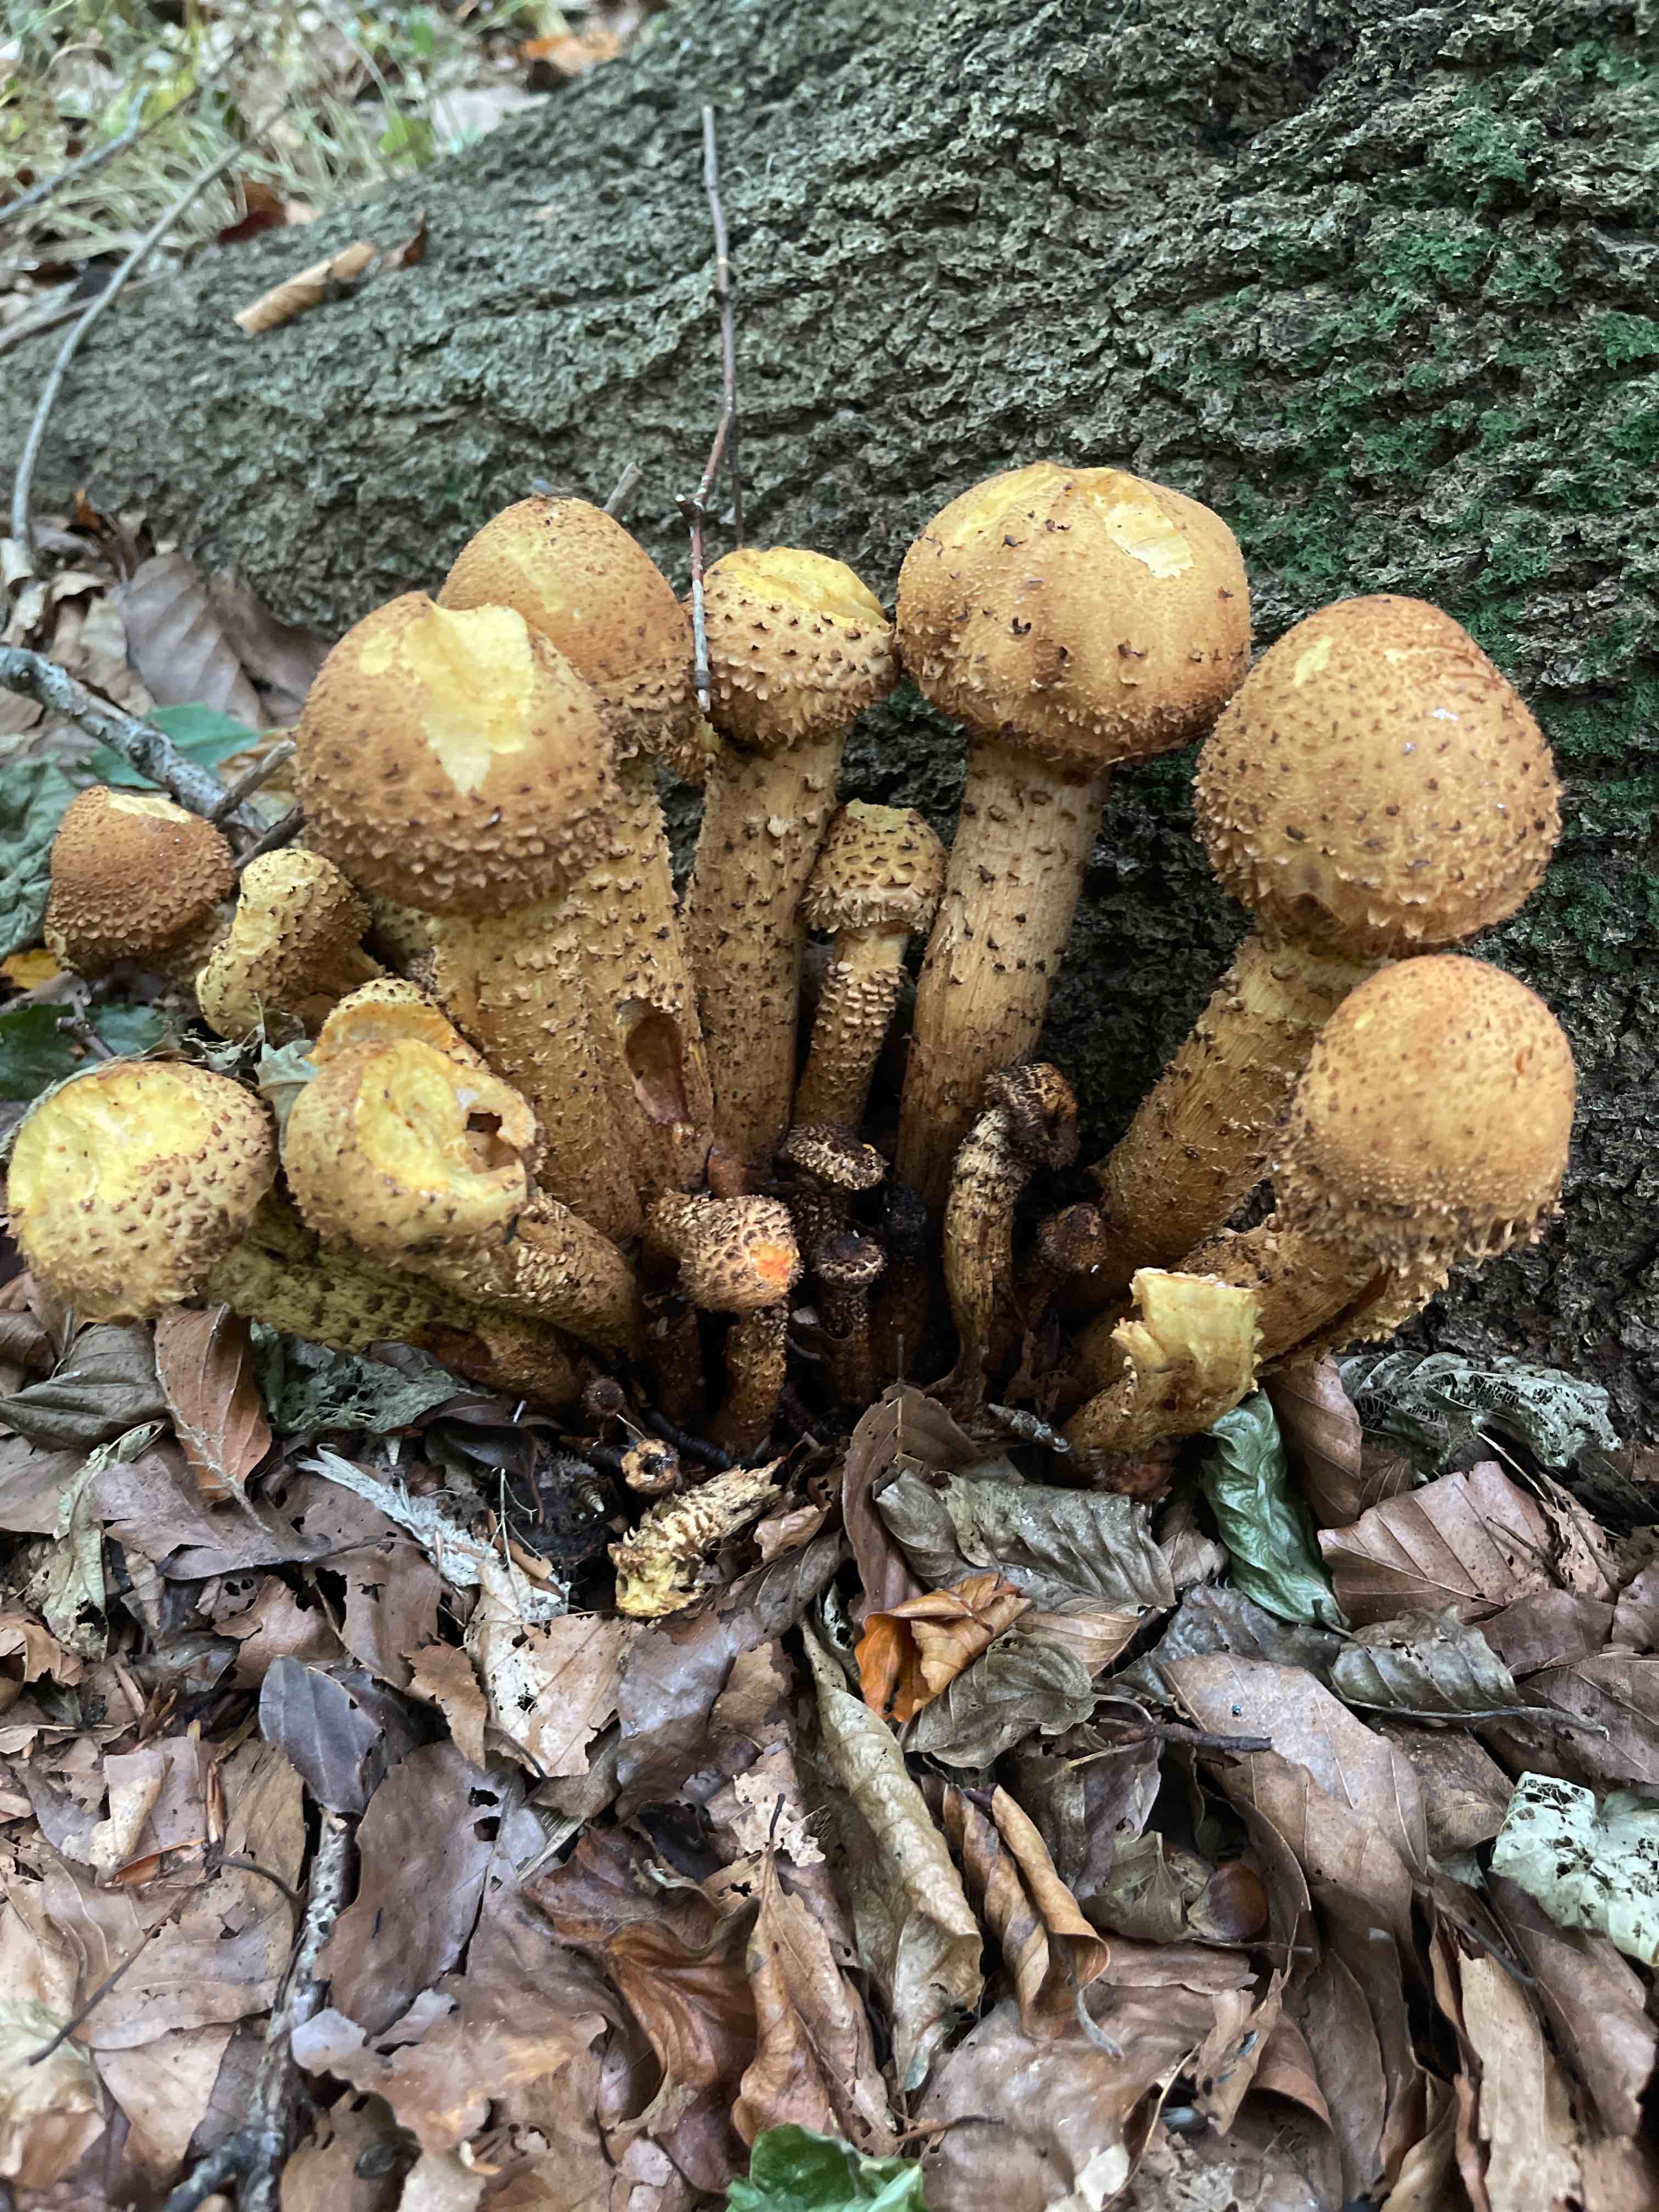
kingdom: Fungi
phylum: Basidiomycota
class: Agaricomycetes
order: Agaricales
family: Strophariaceae
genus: Pholiota
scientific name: Pholiota squarrosa
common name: krumskællet skælhat
